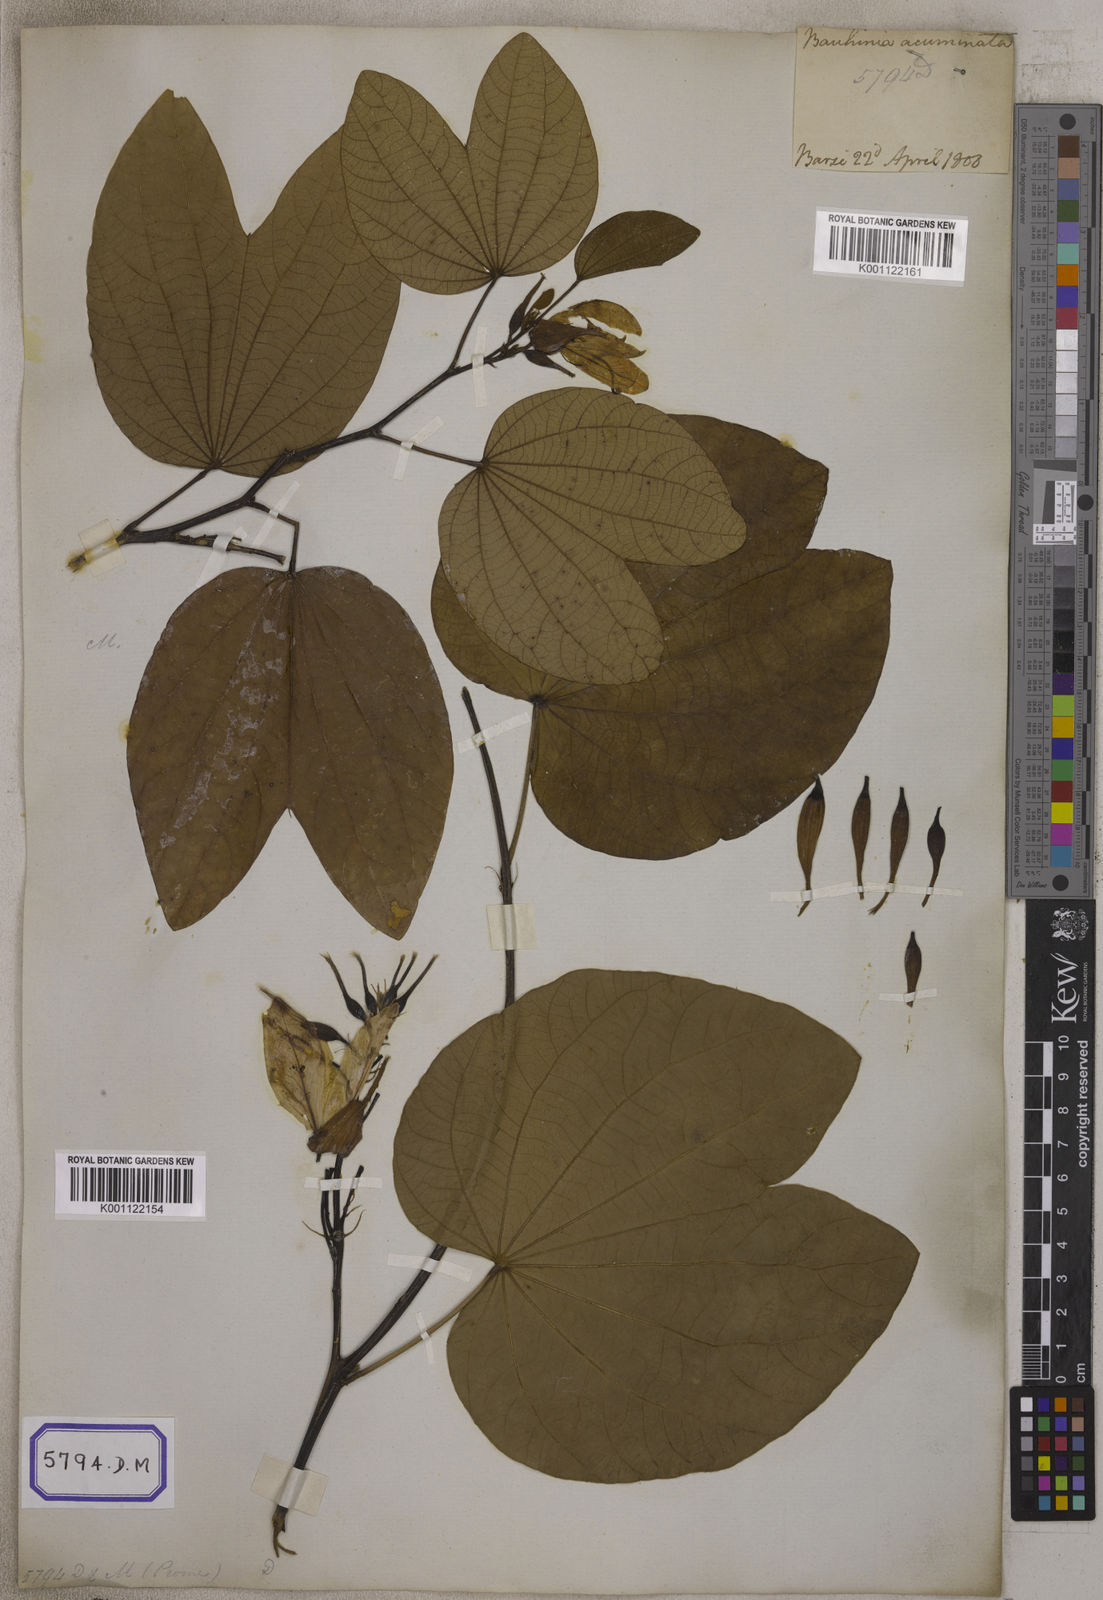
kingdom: Plantae
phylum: Tracheophyta
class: Magnoliopsida
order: Fabales
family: Fabaceae
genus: Bauhinia
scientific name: Bauhinia acuminata
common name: Dwarf white bauhinia
